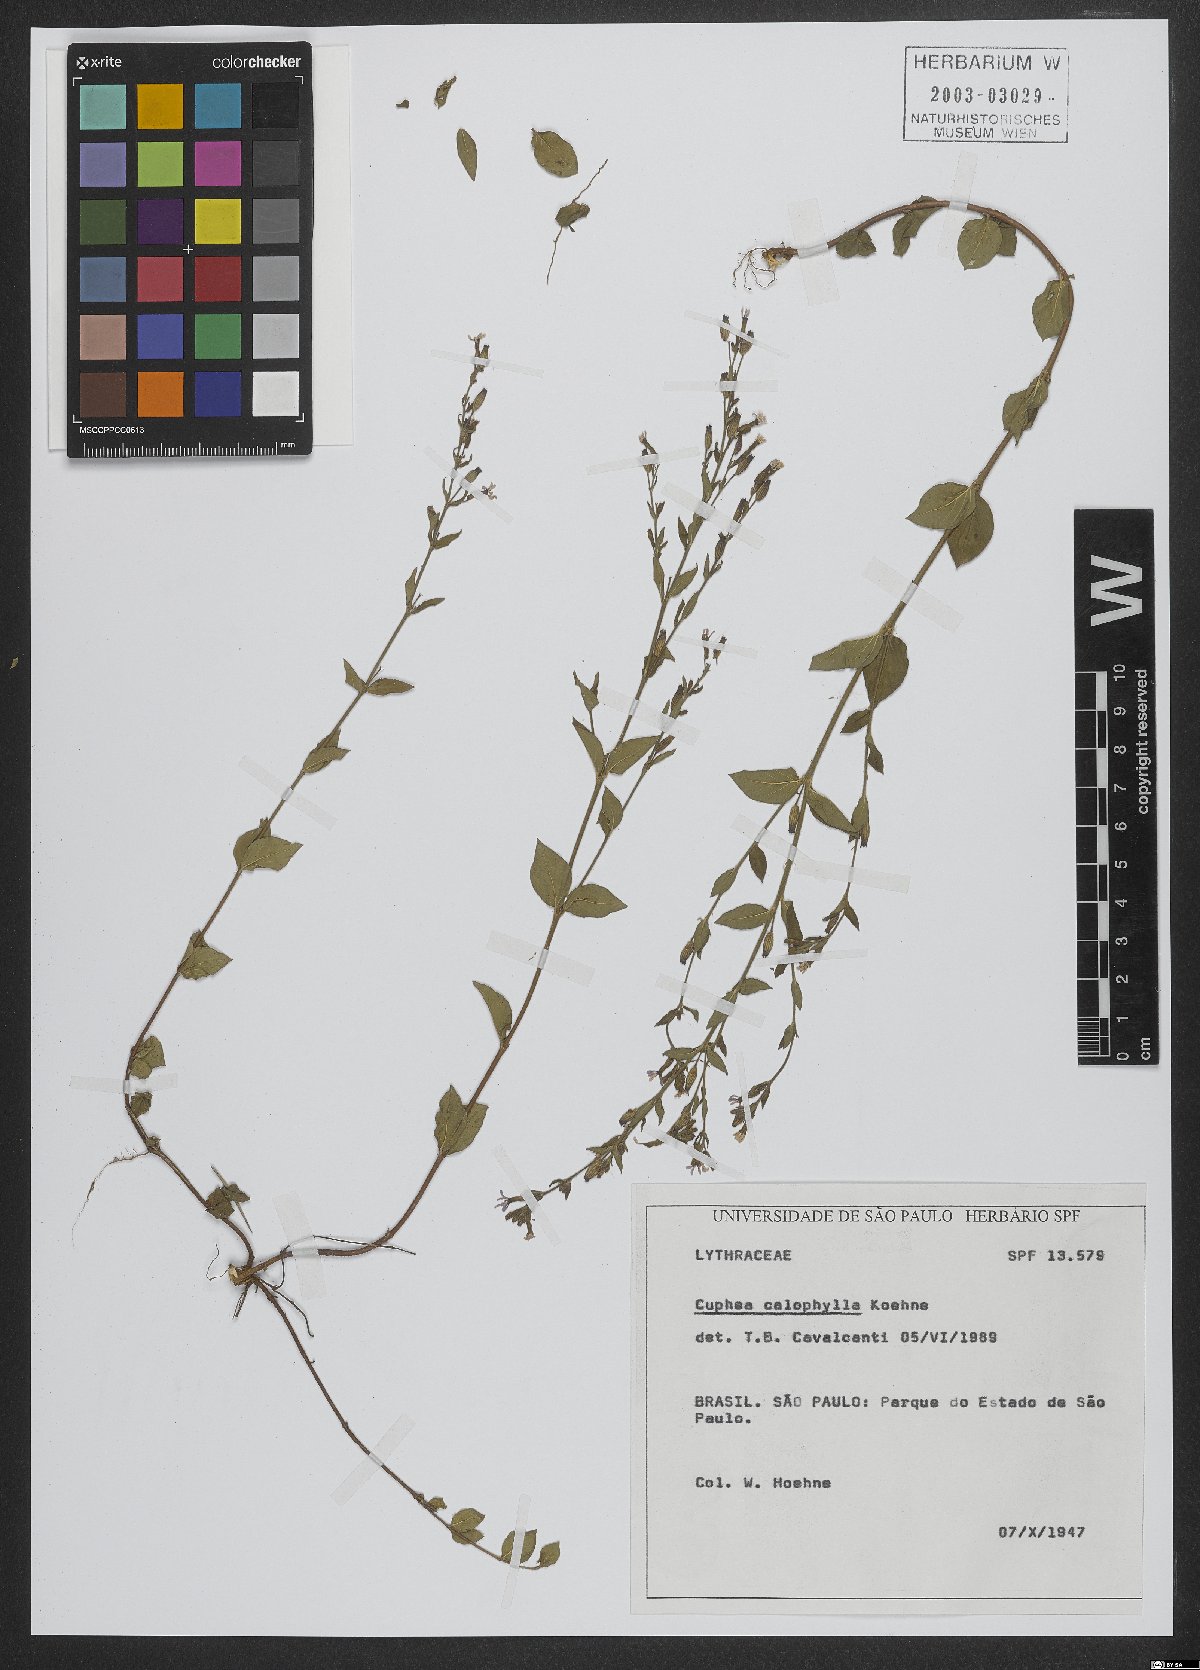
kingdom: Plantae
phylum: Tracheophyta
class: Magnoliopsida
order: Myrtales
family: Lythraceae
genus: Cuphea
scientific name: Cuphea calophylla
